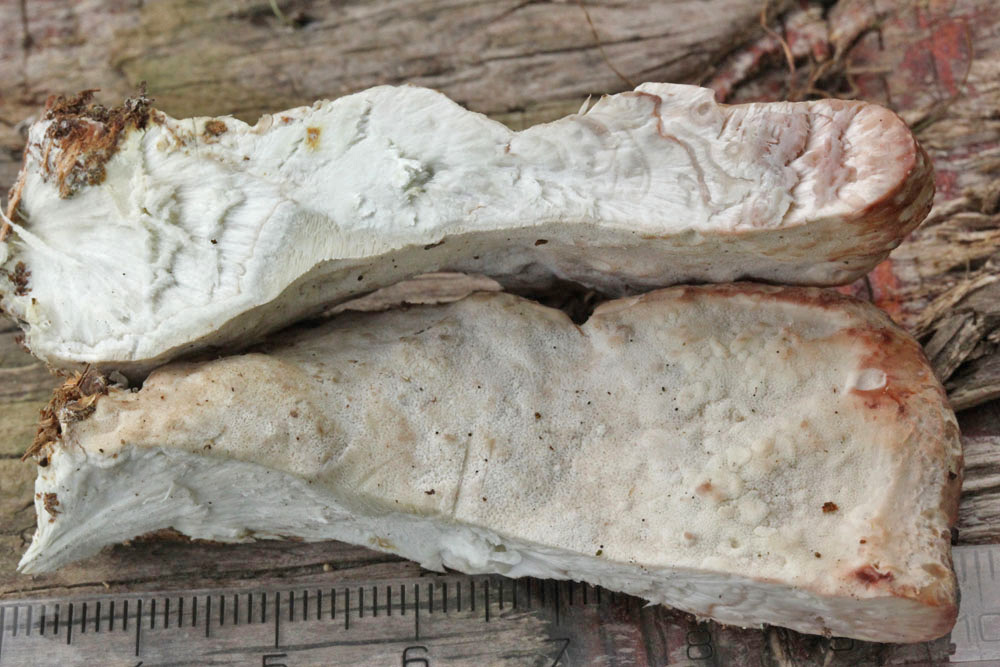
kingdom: Fungi
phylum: Basidiomycota
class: Agaricomycetes
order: Polyporales
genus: Calcipostia
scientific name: Calcipostia guttulata
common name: dråbe-kødporesvamp
